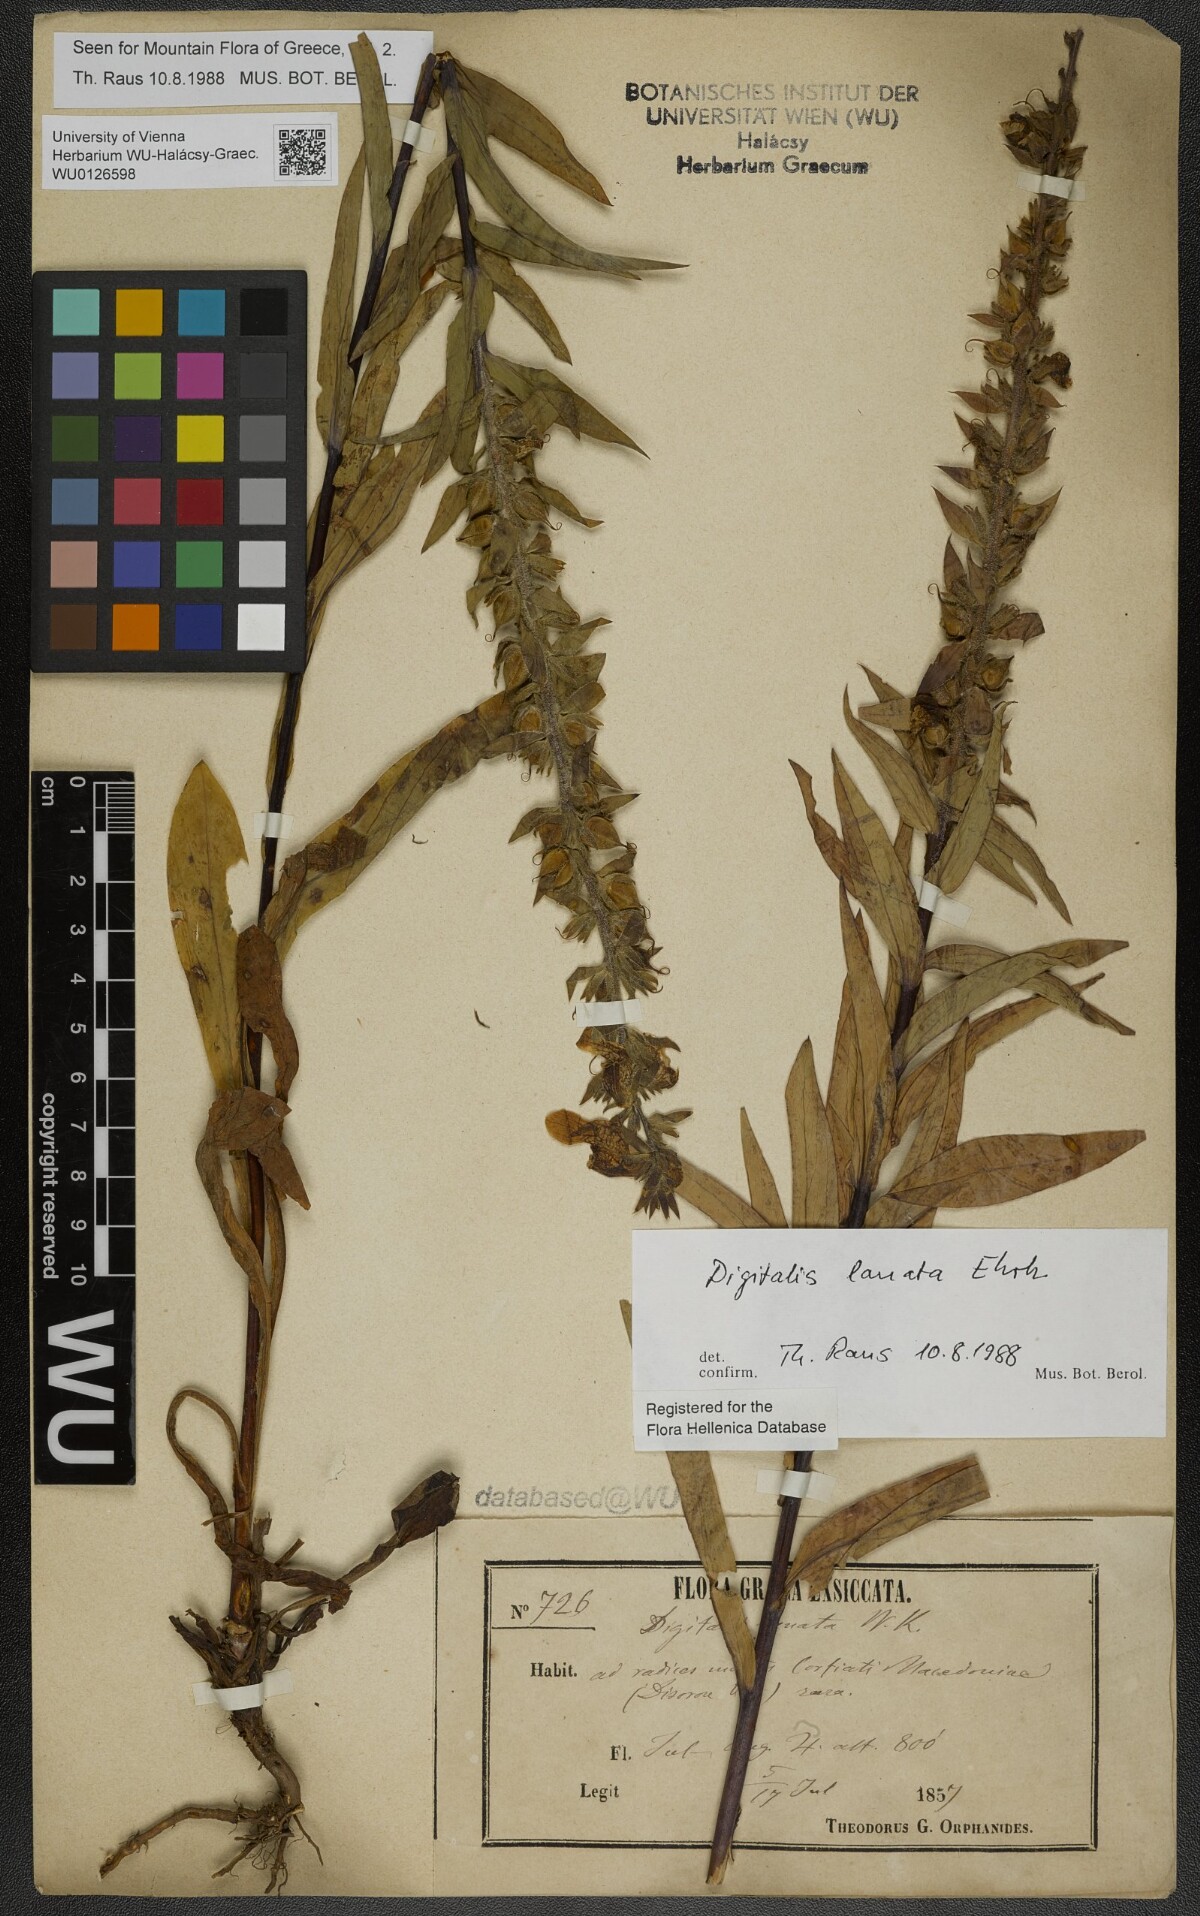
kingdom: Plantae
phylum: Tracheophyta
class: Magnoliopsida
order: Lamiales
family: Plantaginaceae
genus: Digitalis
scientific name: Digitalis lanata
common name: Grecian foxglove
